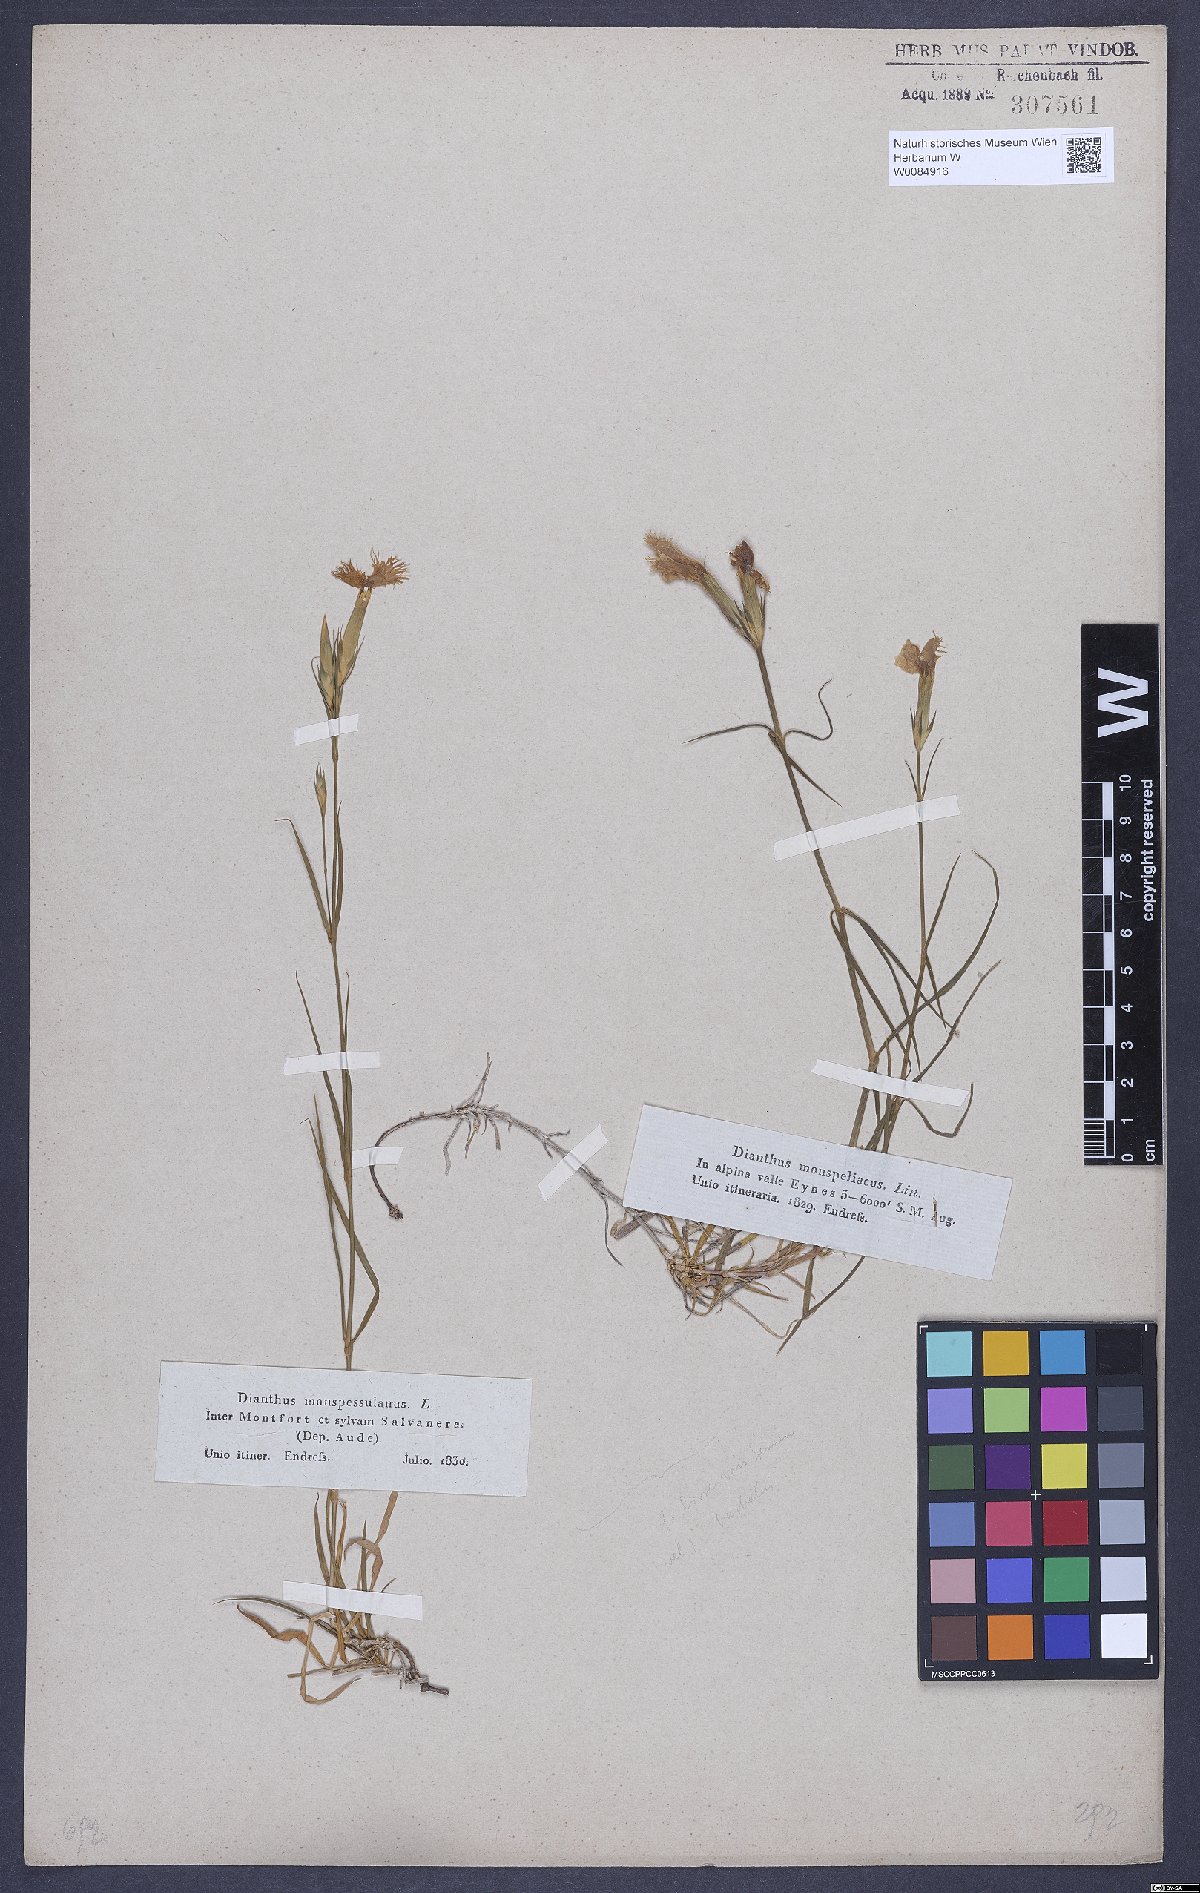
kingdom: Plantae
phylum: Tracheophyta
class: Magnoliopsida
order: Caryophyllales
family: Caryophyllaceae
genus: Dianthus
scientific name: Dianthus hyssopifolius
